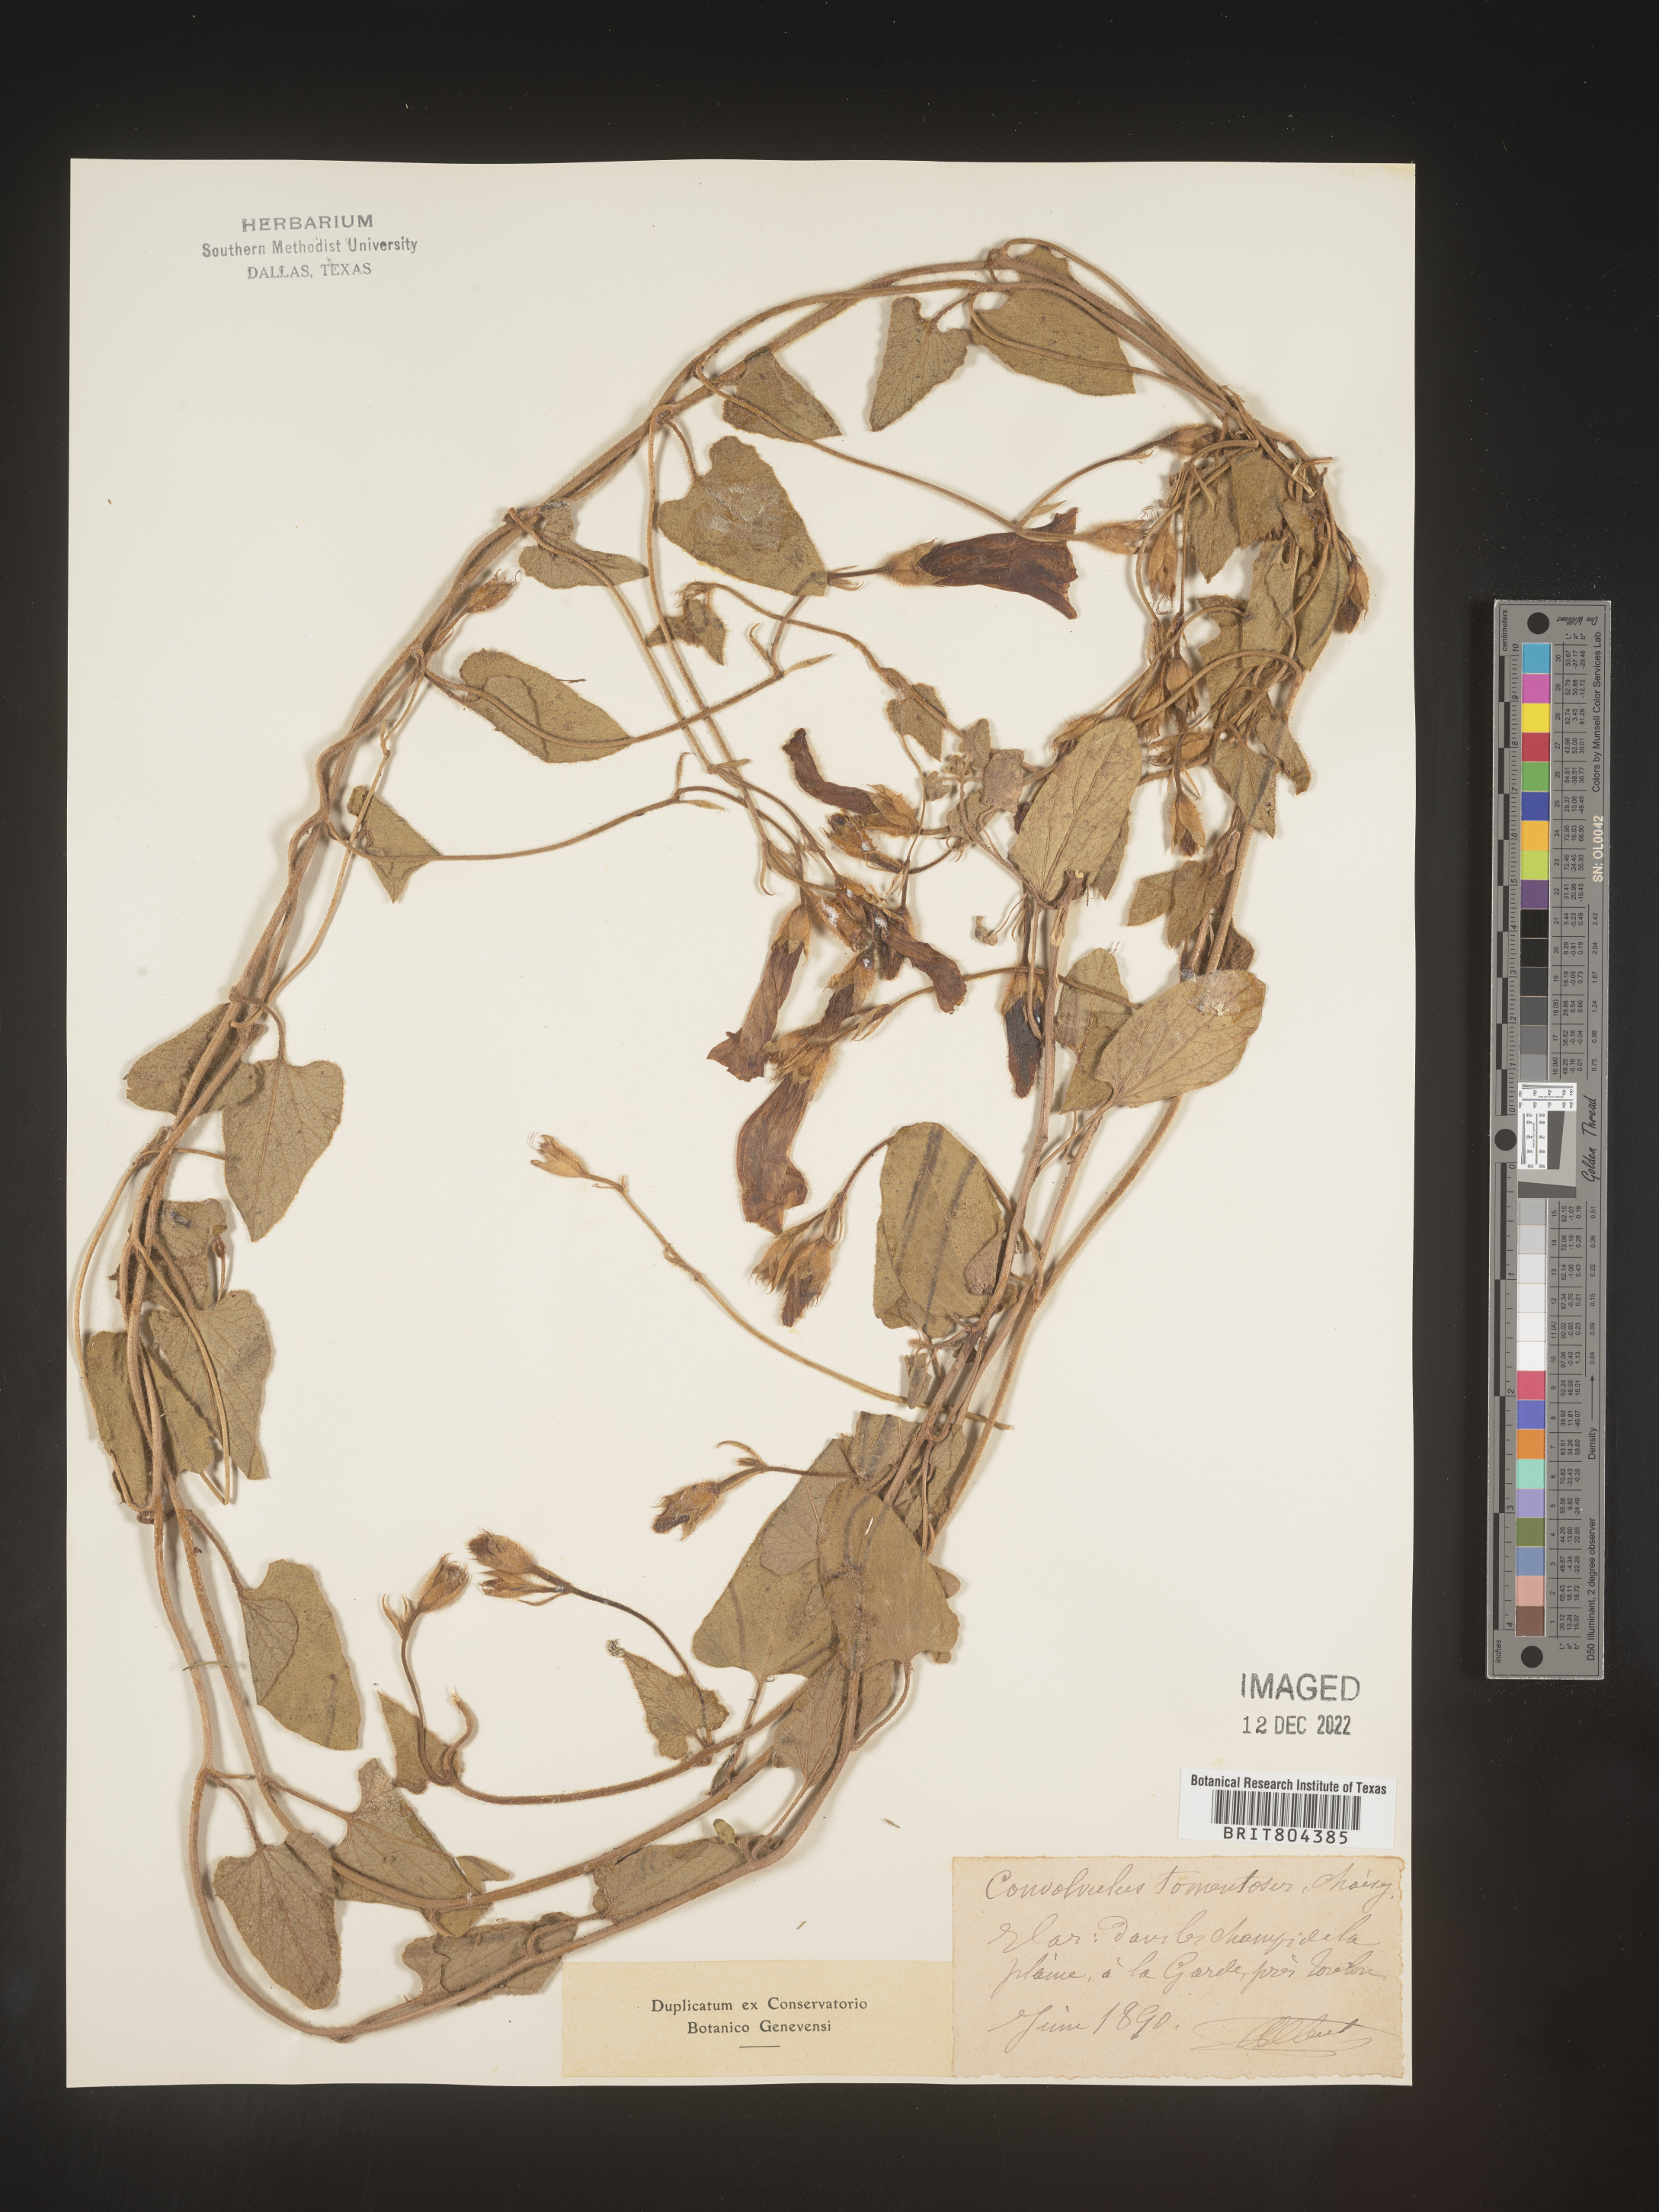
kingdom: Plantae
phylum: Tracheophyta
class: Magnoliopsida
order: Solanales
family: Convolvulaceae
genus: Convolvulus
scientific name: Convolvulus
